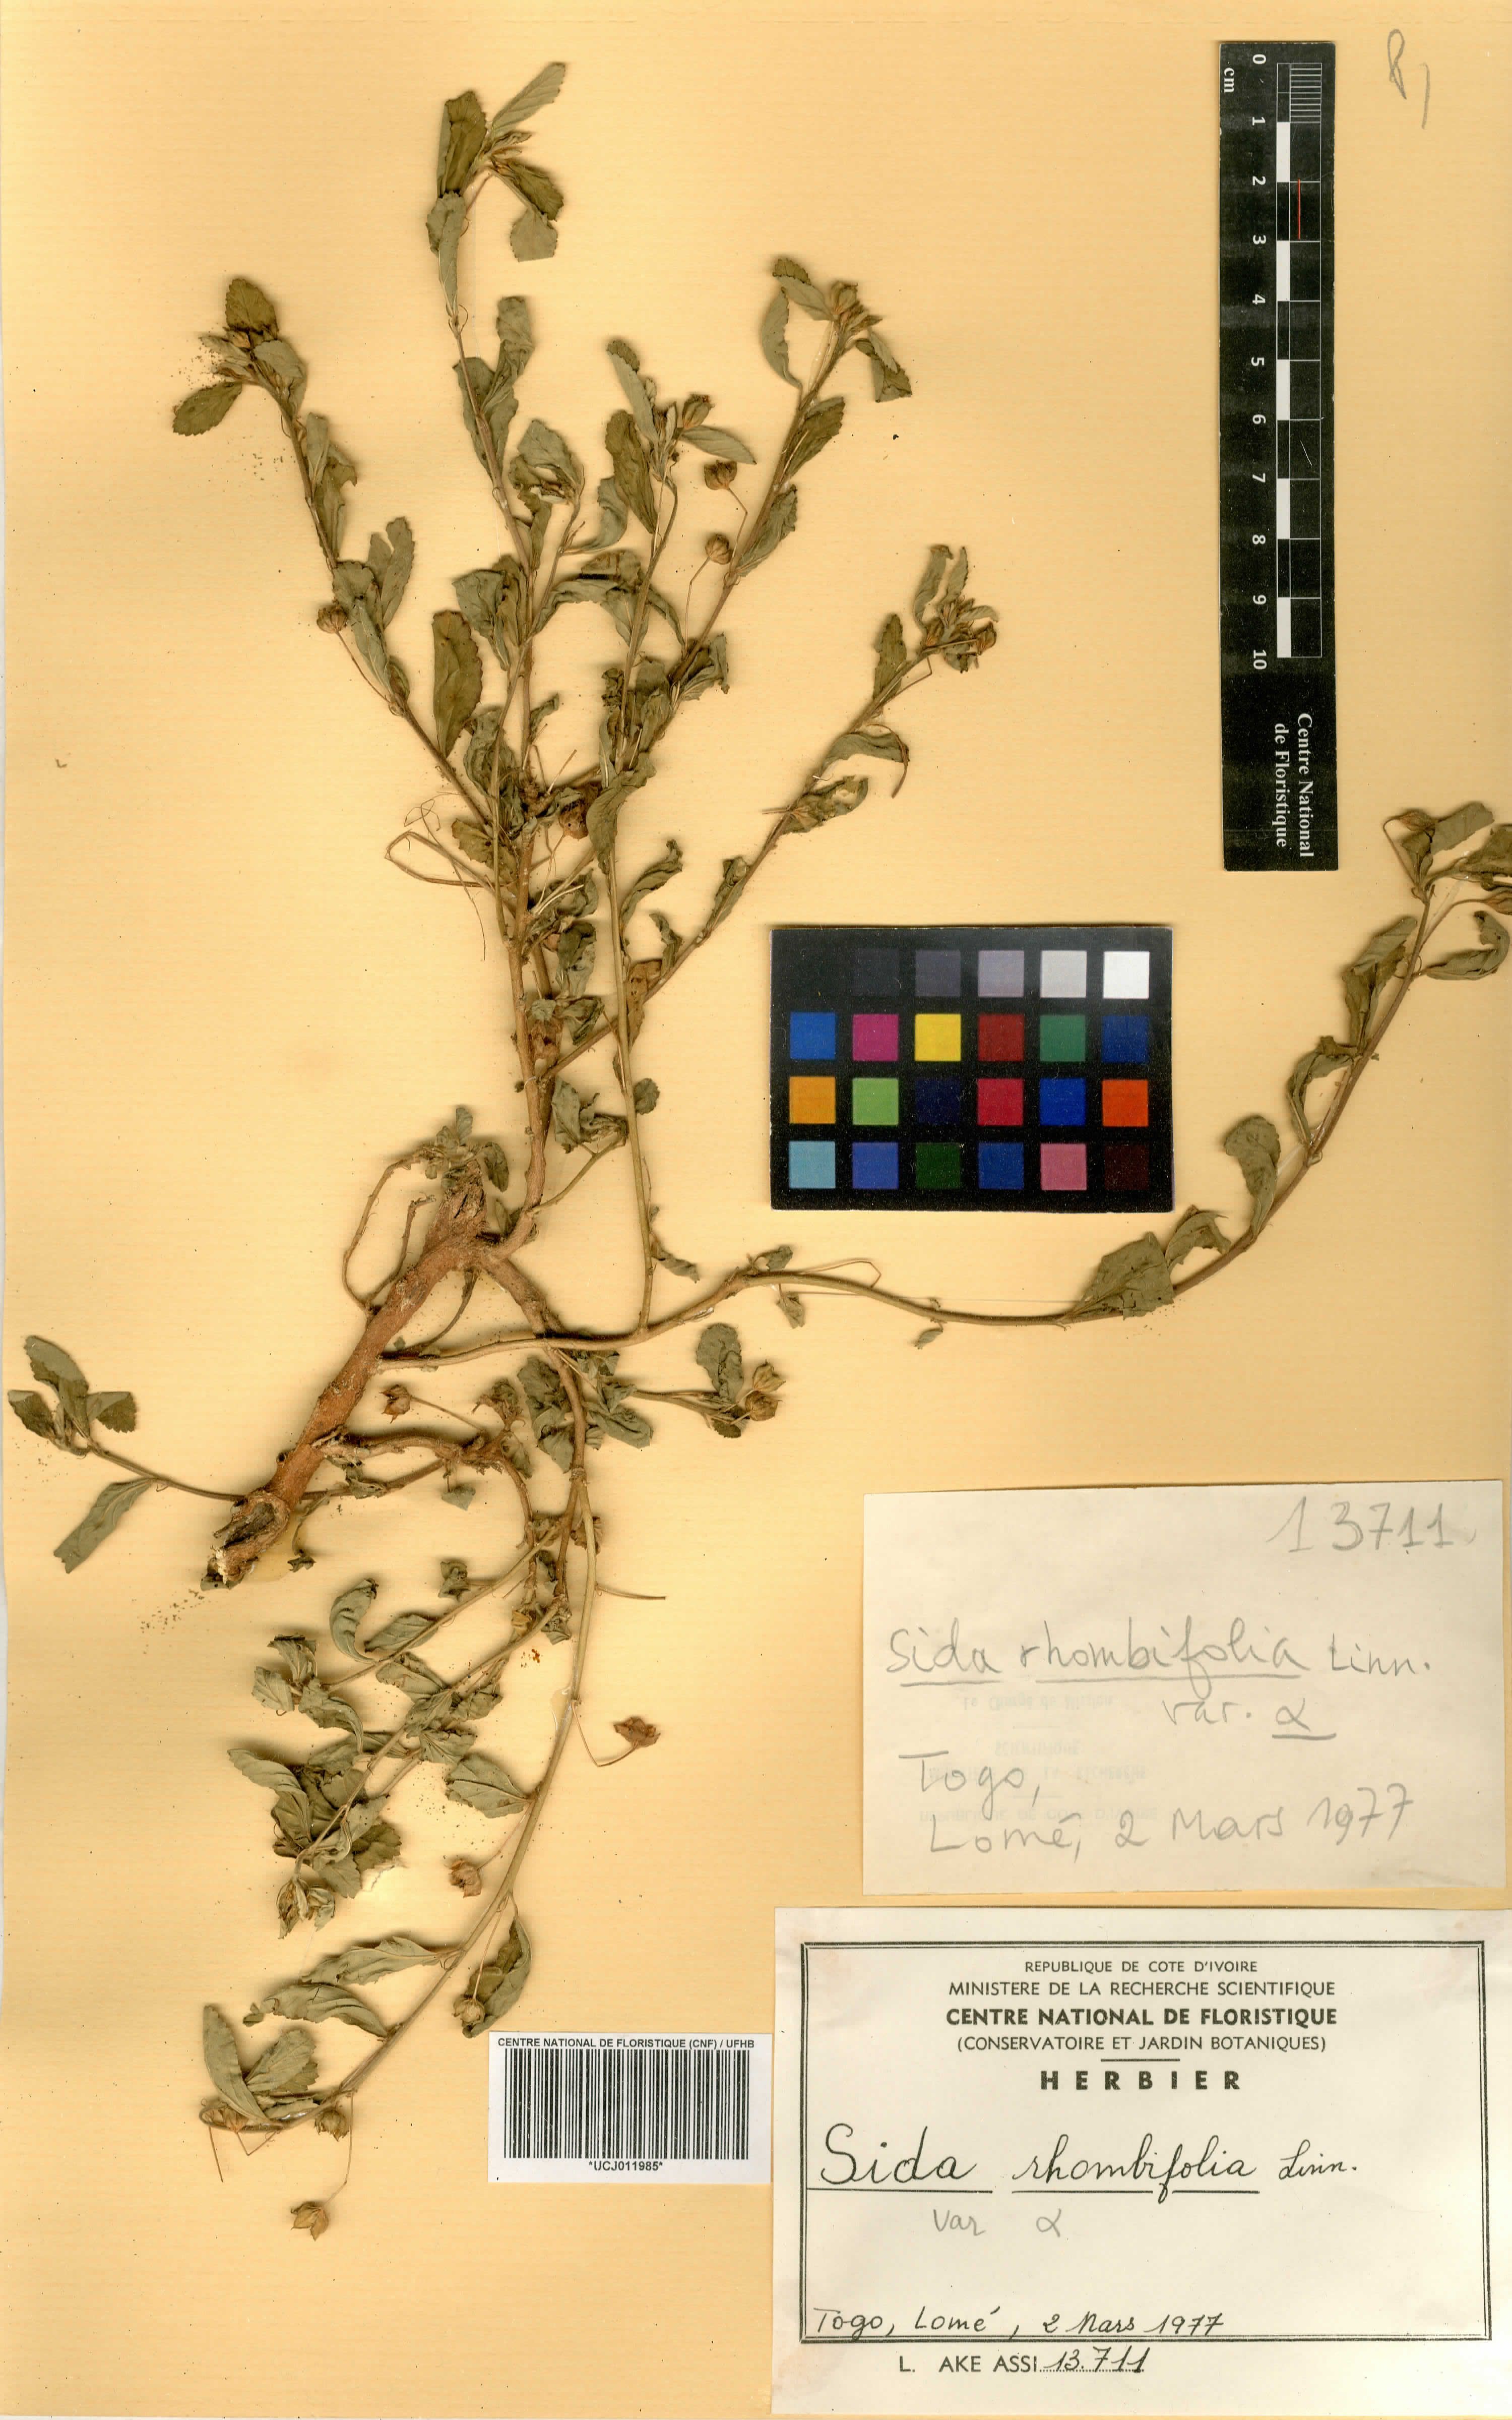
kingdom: Plantae
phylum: Tracheophyta
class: Magnoliopsida
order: Malvales
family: Malvaceae
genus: Sida
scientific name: Sida rhombifolia
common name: Queensland-hemp
